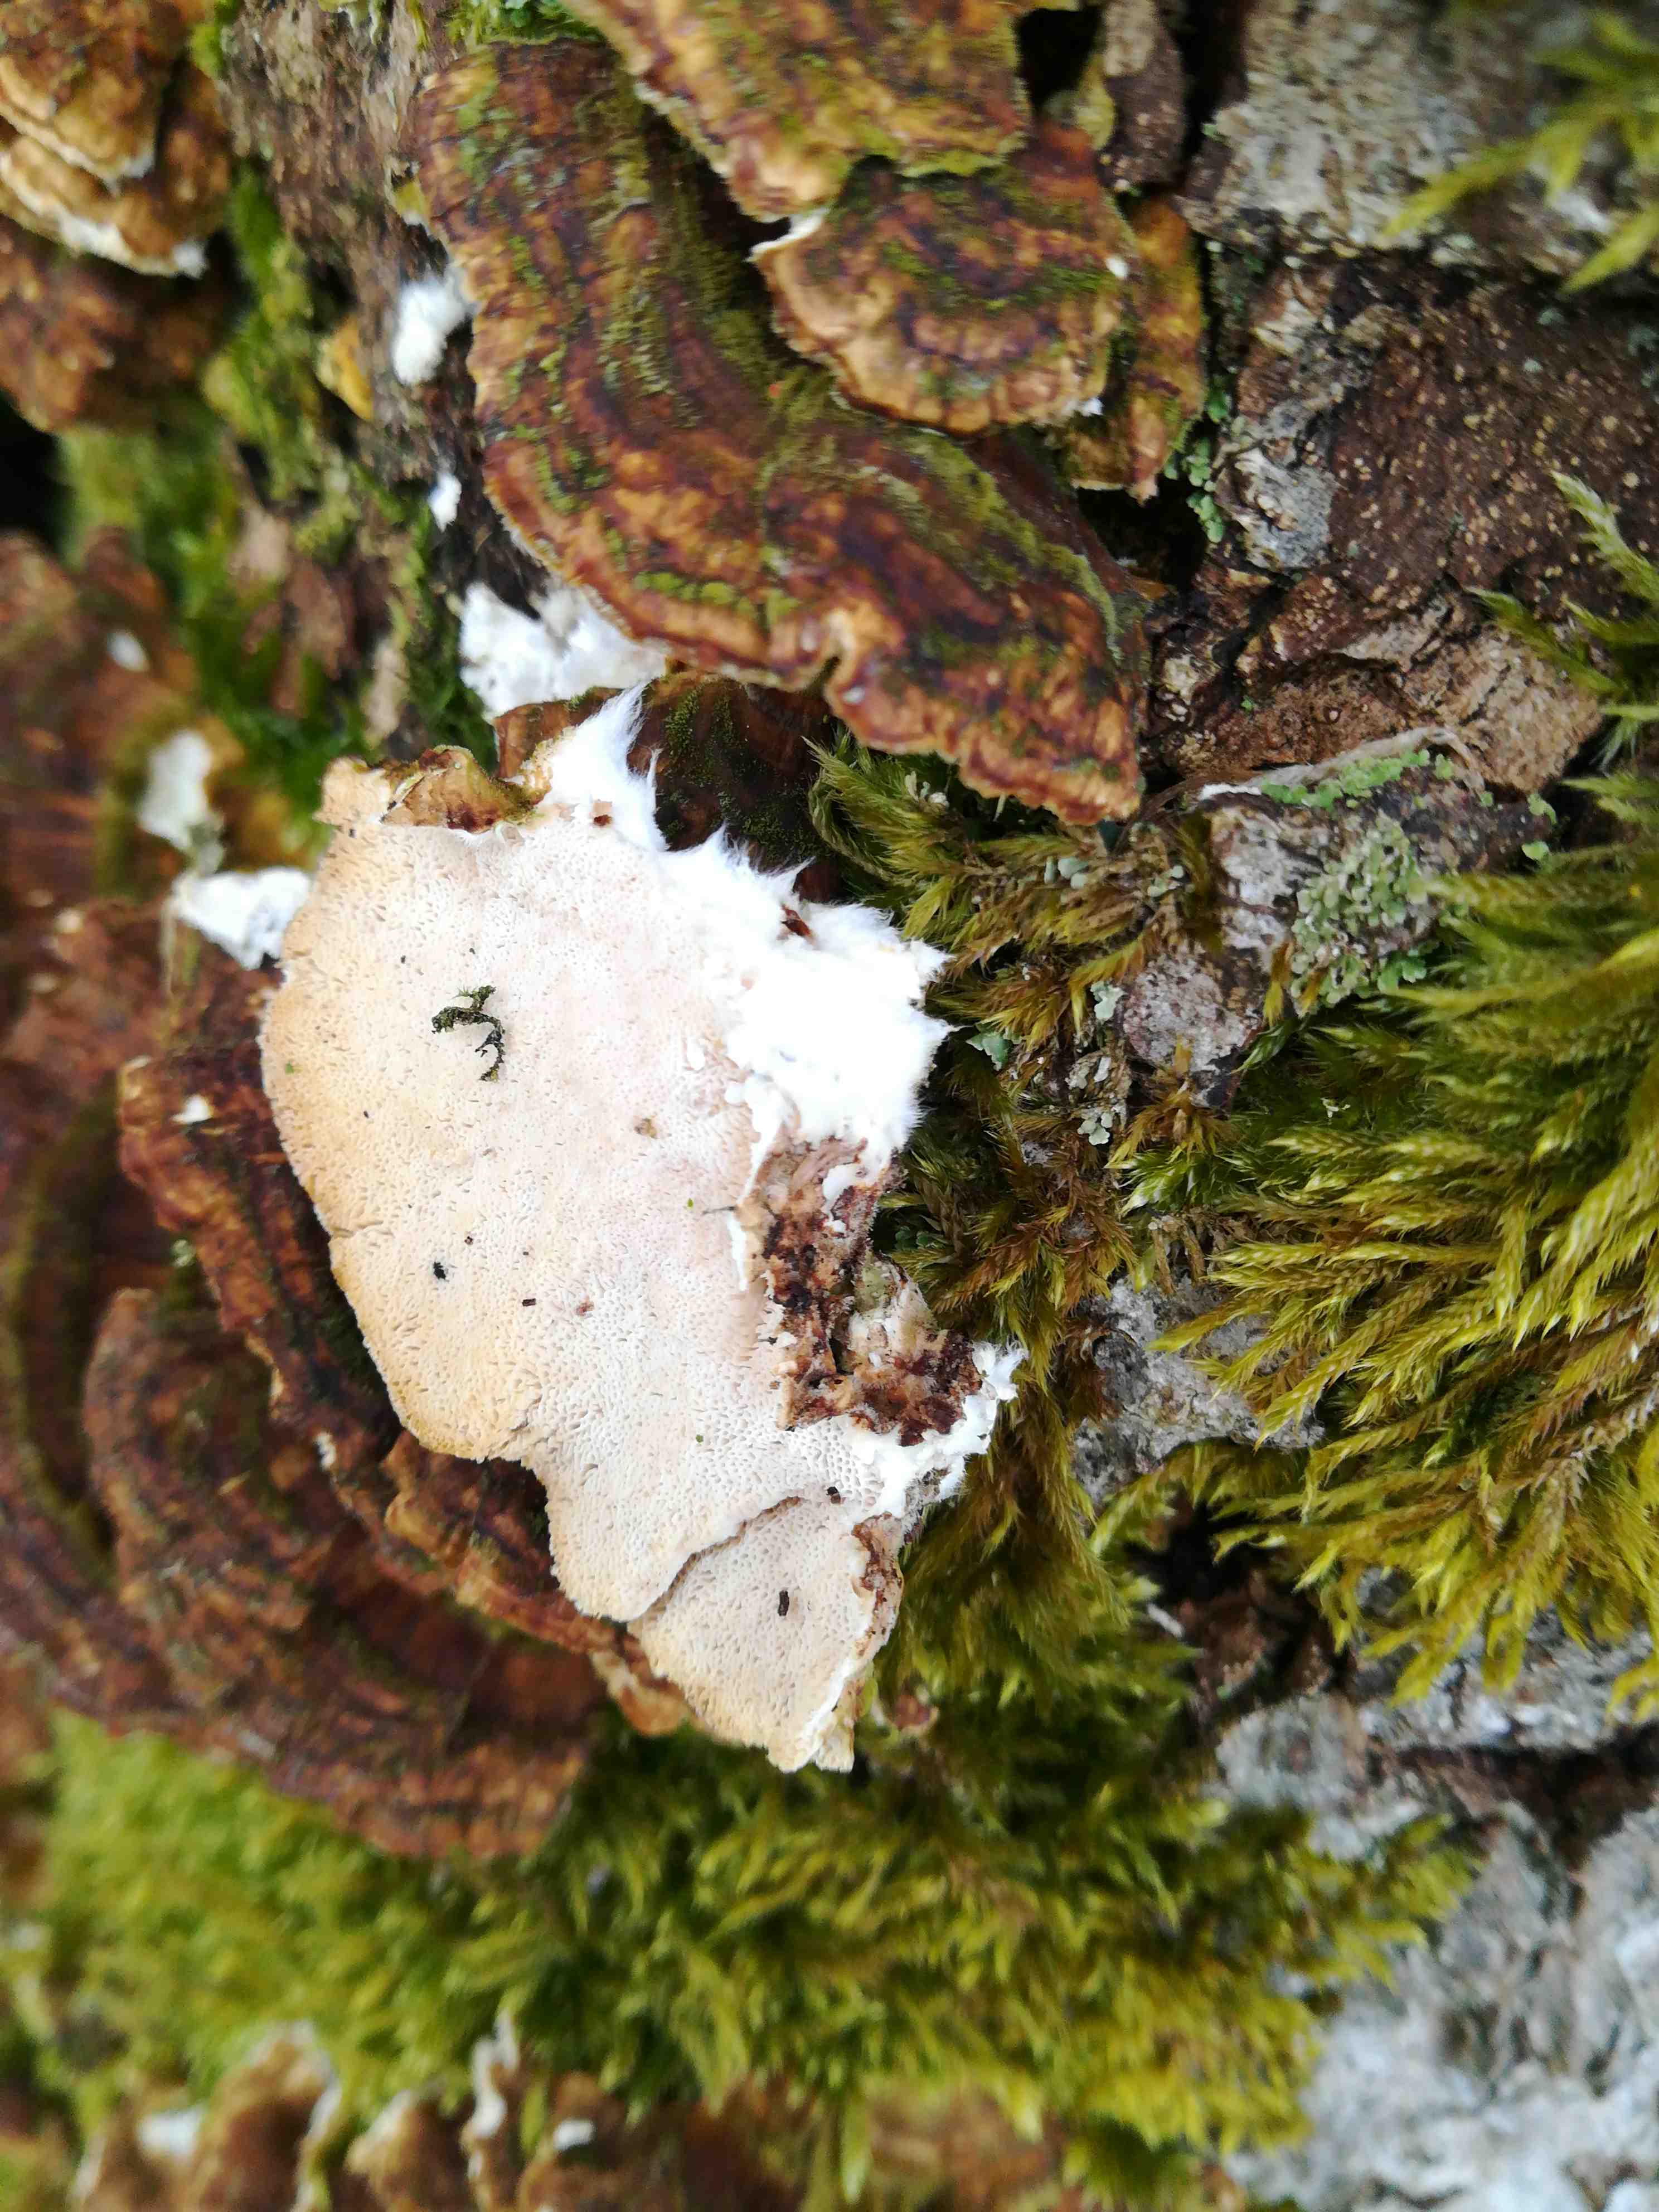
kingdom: Fungi
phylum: Basidiomycota
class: Agaricomycetes
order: Polyporales
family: Polyporaceae
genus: Trametes
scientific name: Trametes versicolor
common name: broget læderporesvamp
